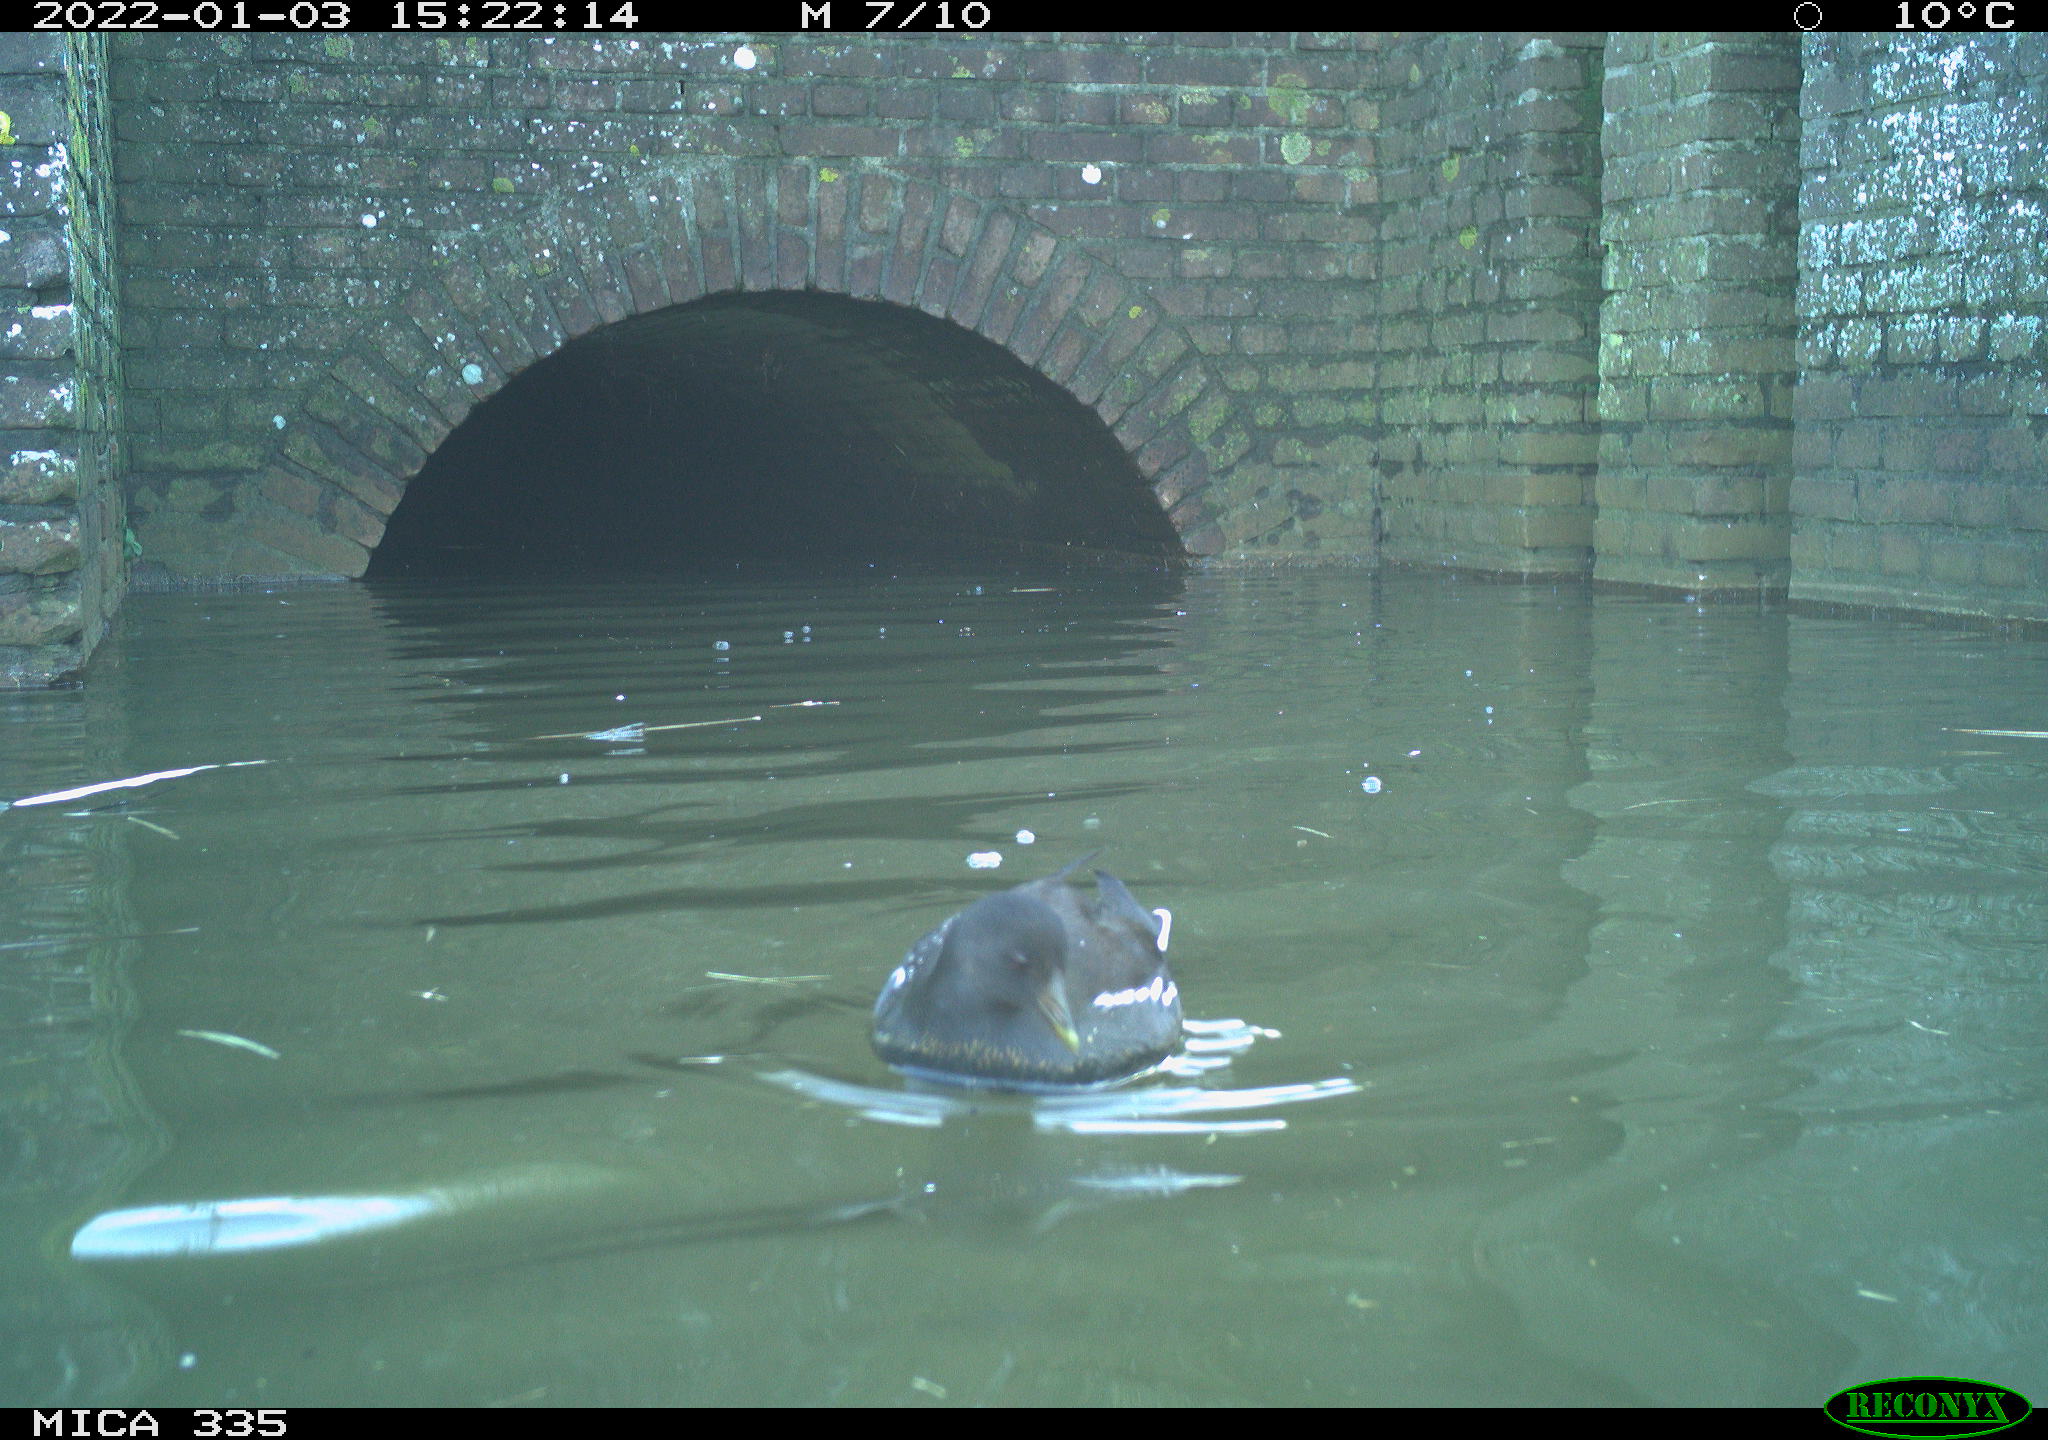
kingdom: Animalia
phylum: Chordata
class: Aves
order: Gruiformes
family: Rallidae
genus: Gallinula
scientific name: Gallinula chloropus
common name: Common moorhen
